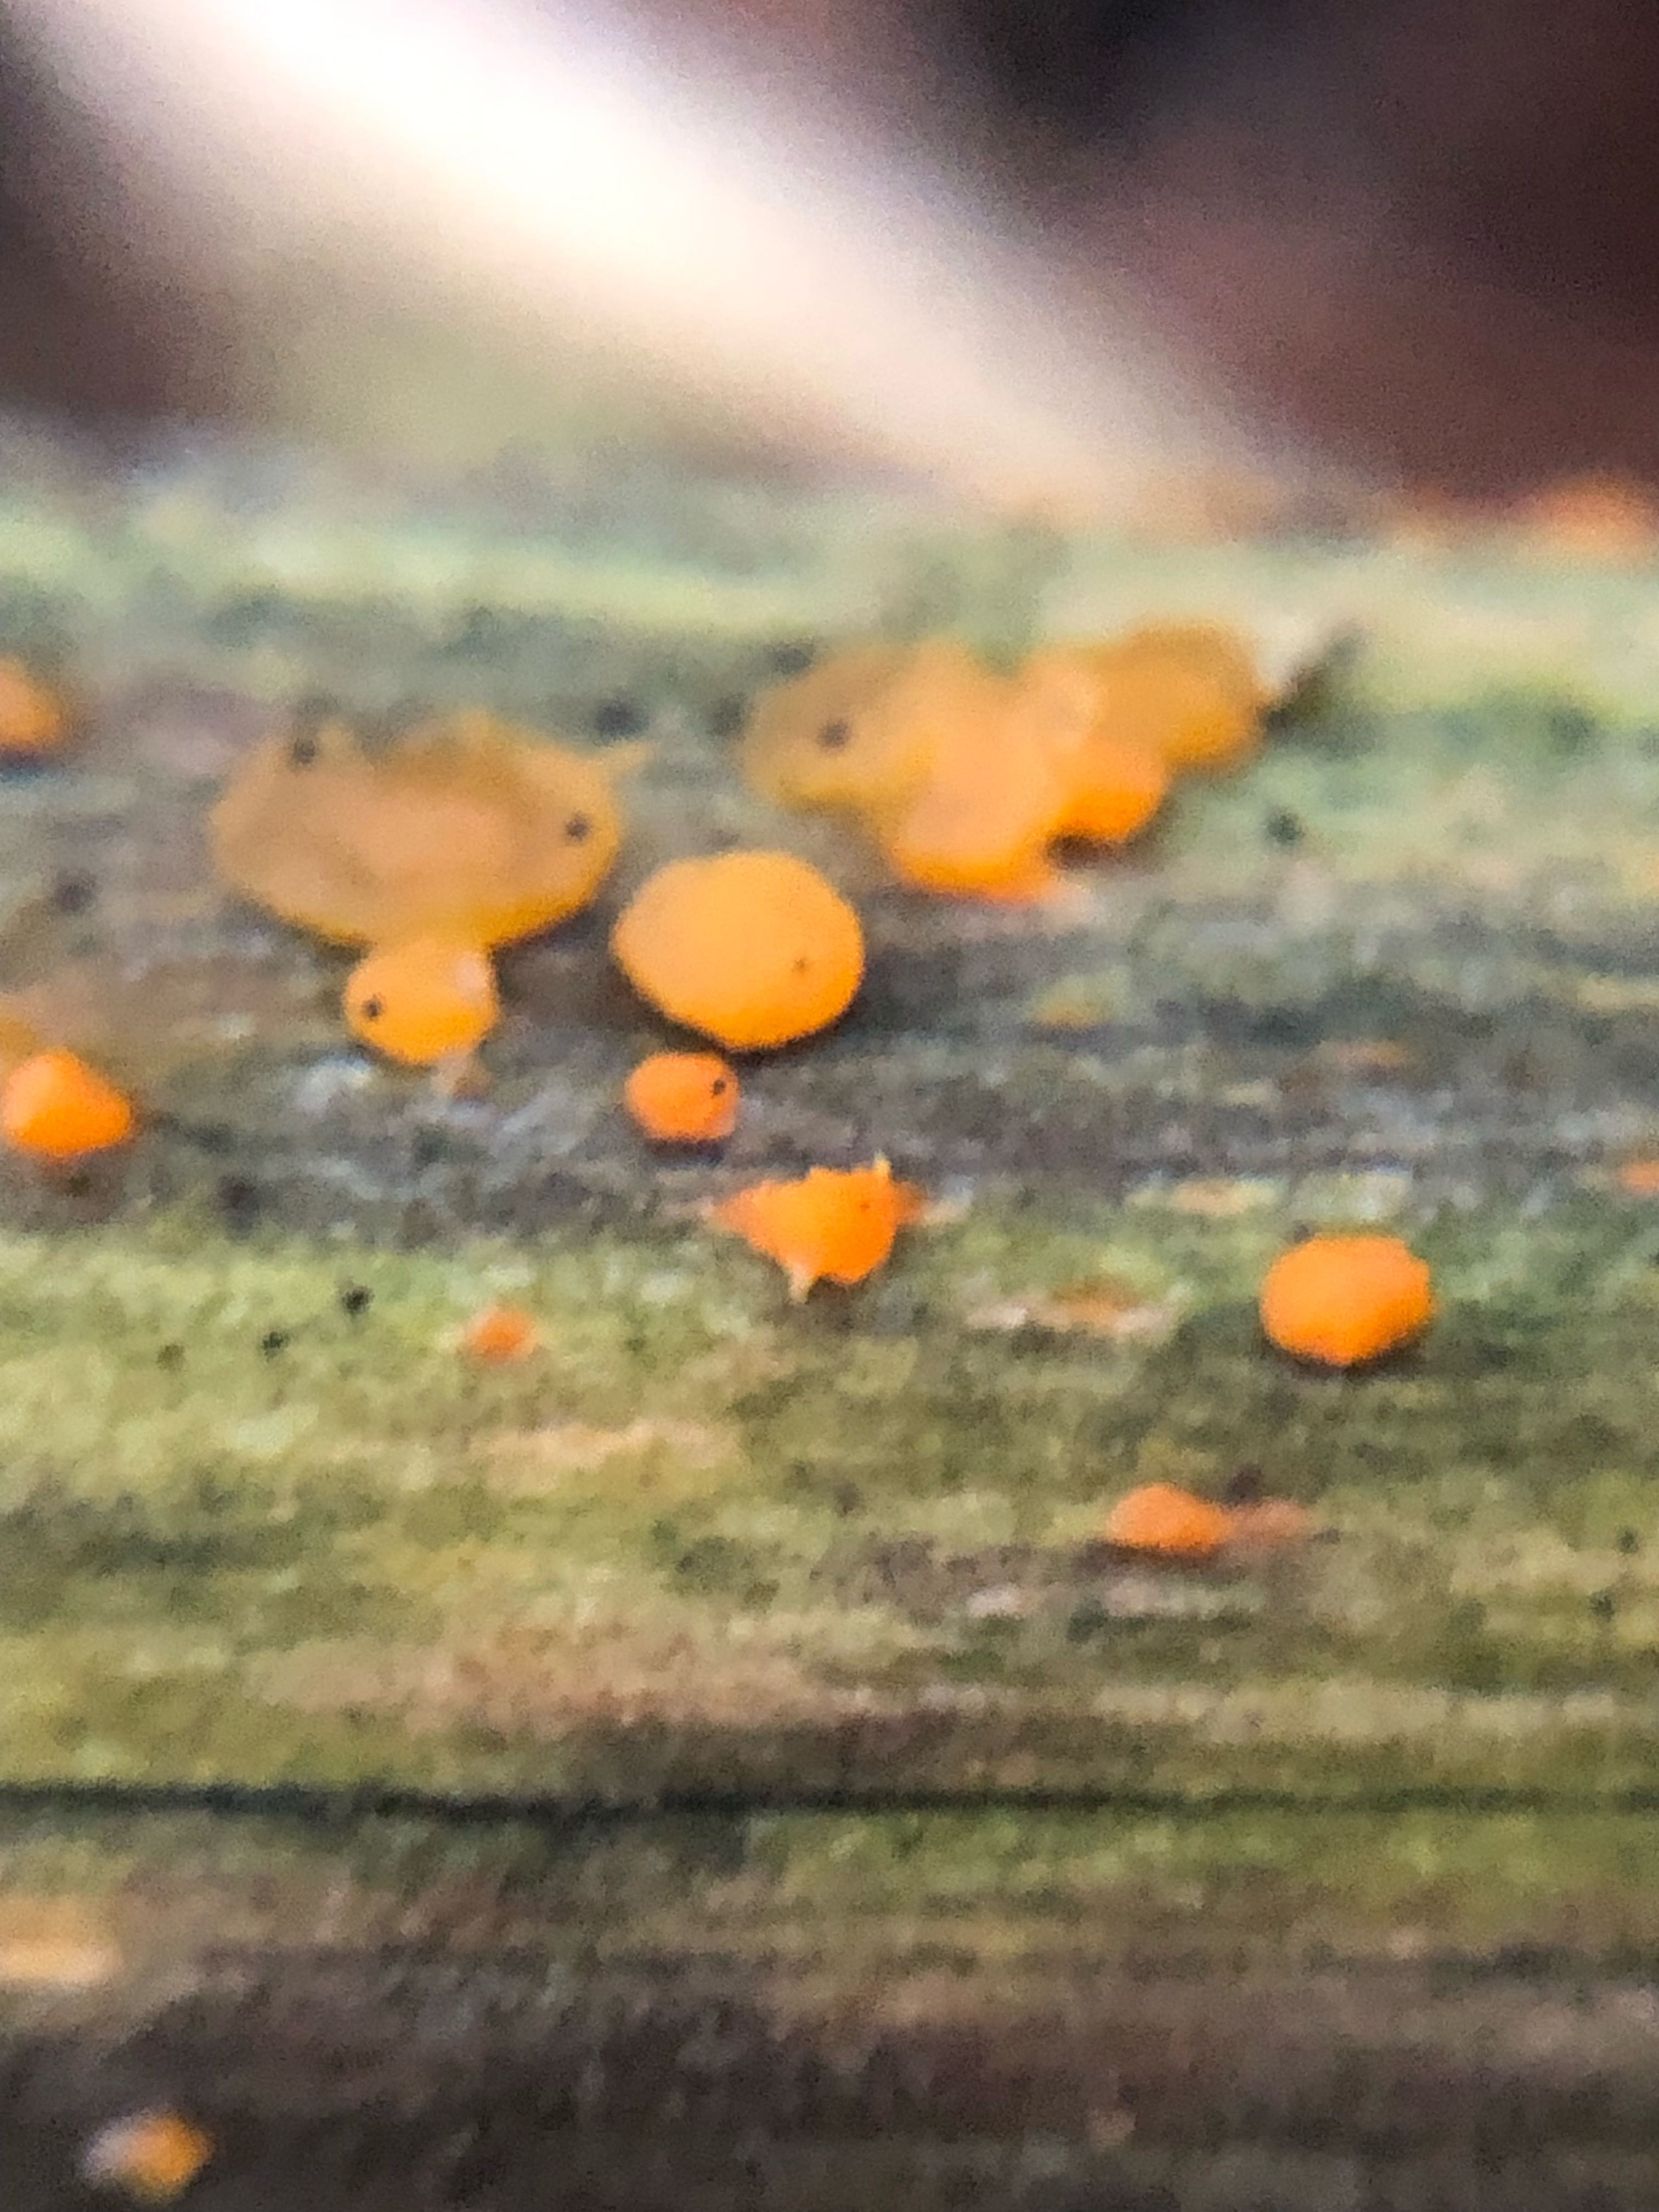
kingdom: Fungi
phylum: Basidiomycota
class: Dacrymycetes
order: Dacrymycetales
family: Dacrymycetaceae
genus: Dacrymyces
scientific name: Dacrymyces stillatus
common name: almindelig tåresvamp
